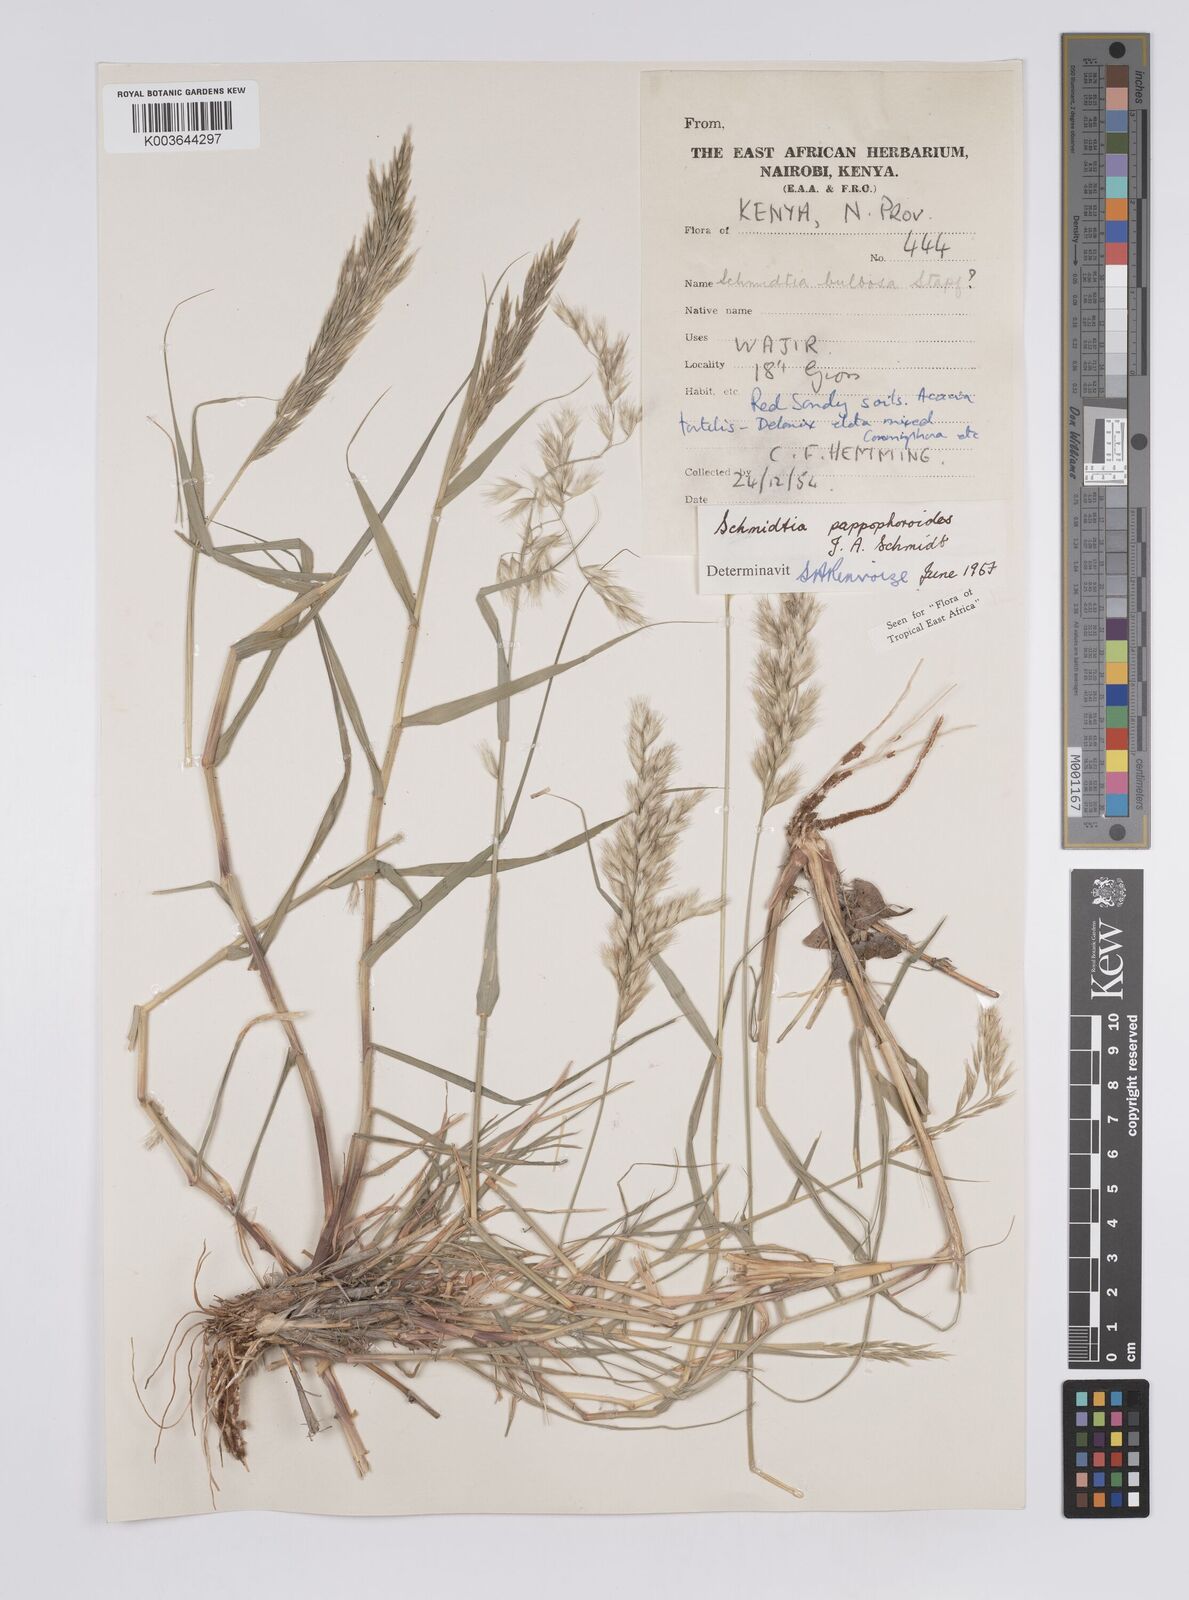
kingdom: Plantae
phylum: Tracheophyta
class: Liliopsida
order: Poales
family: Poaceae
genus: Schmidtia
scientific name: Schmidtia pappophoroides
